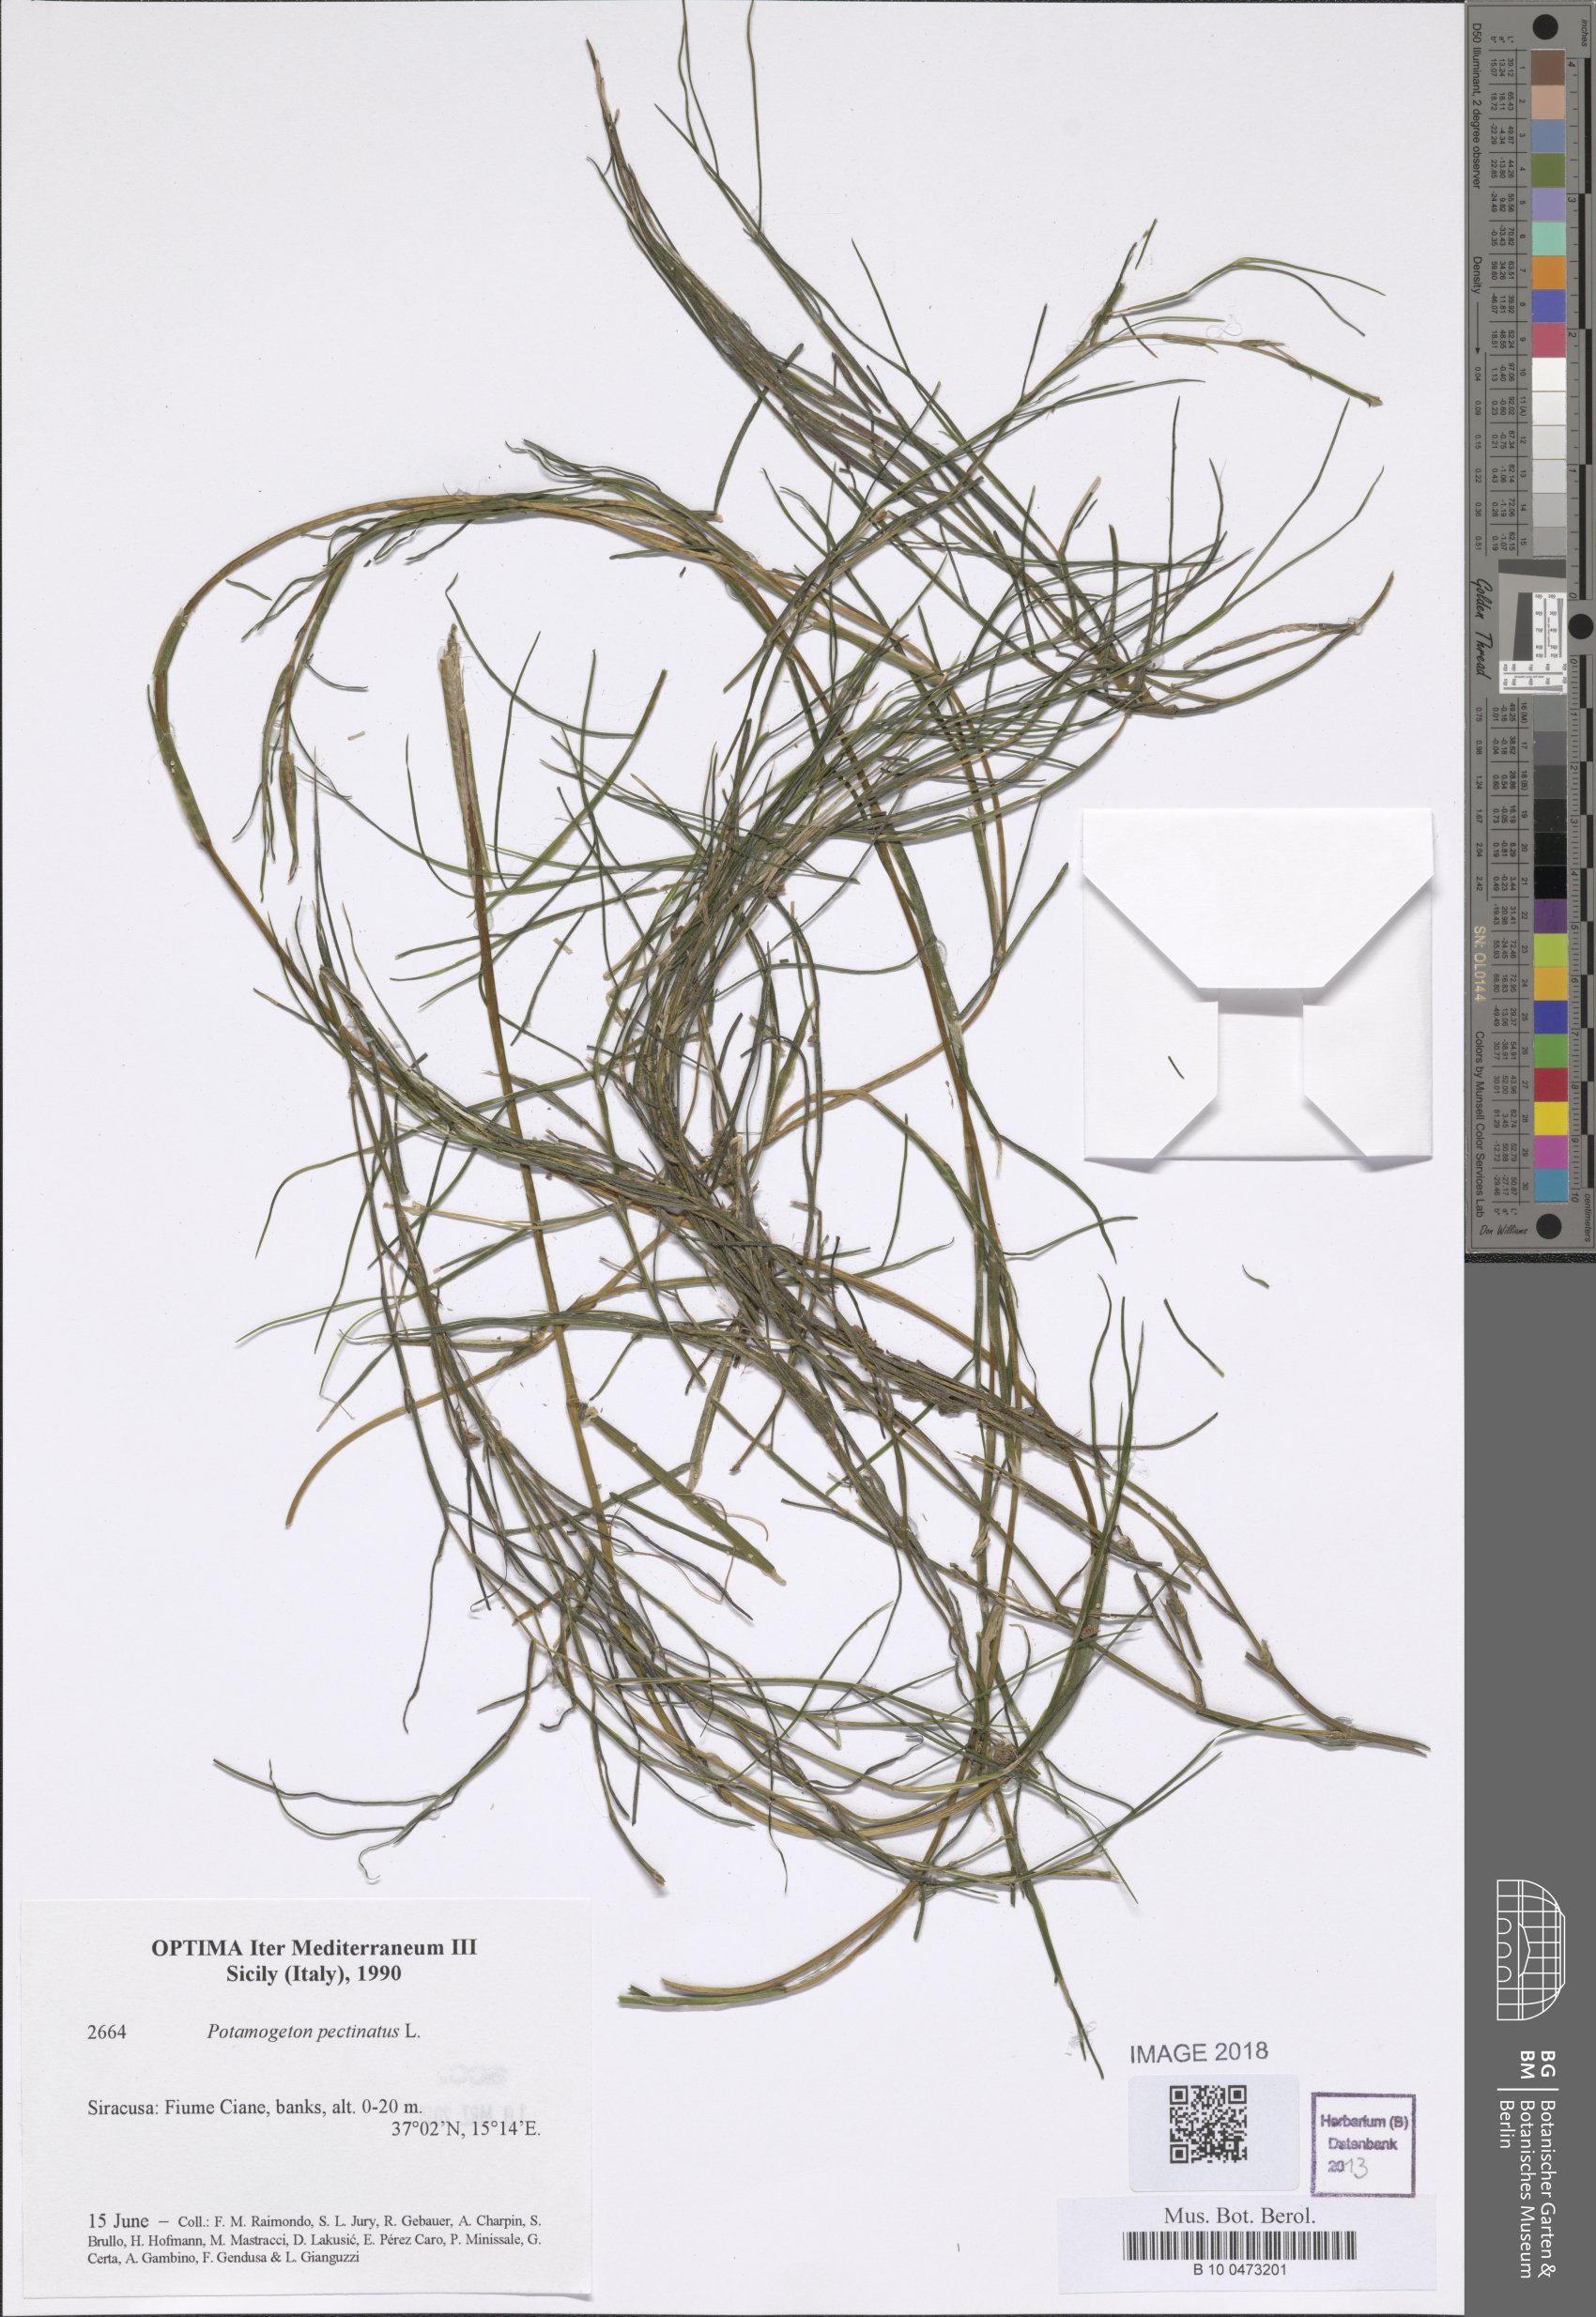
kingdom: Plantae
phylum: Tracheophyta
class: Liliopsida
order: Alismatales
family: Potamogetonaceae
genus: Stuckenia
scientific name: Stuckenia pectinata
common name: Sago pondweed
